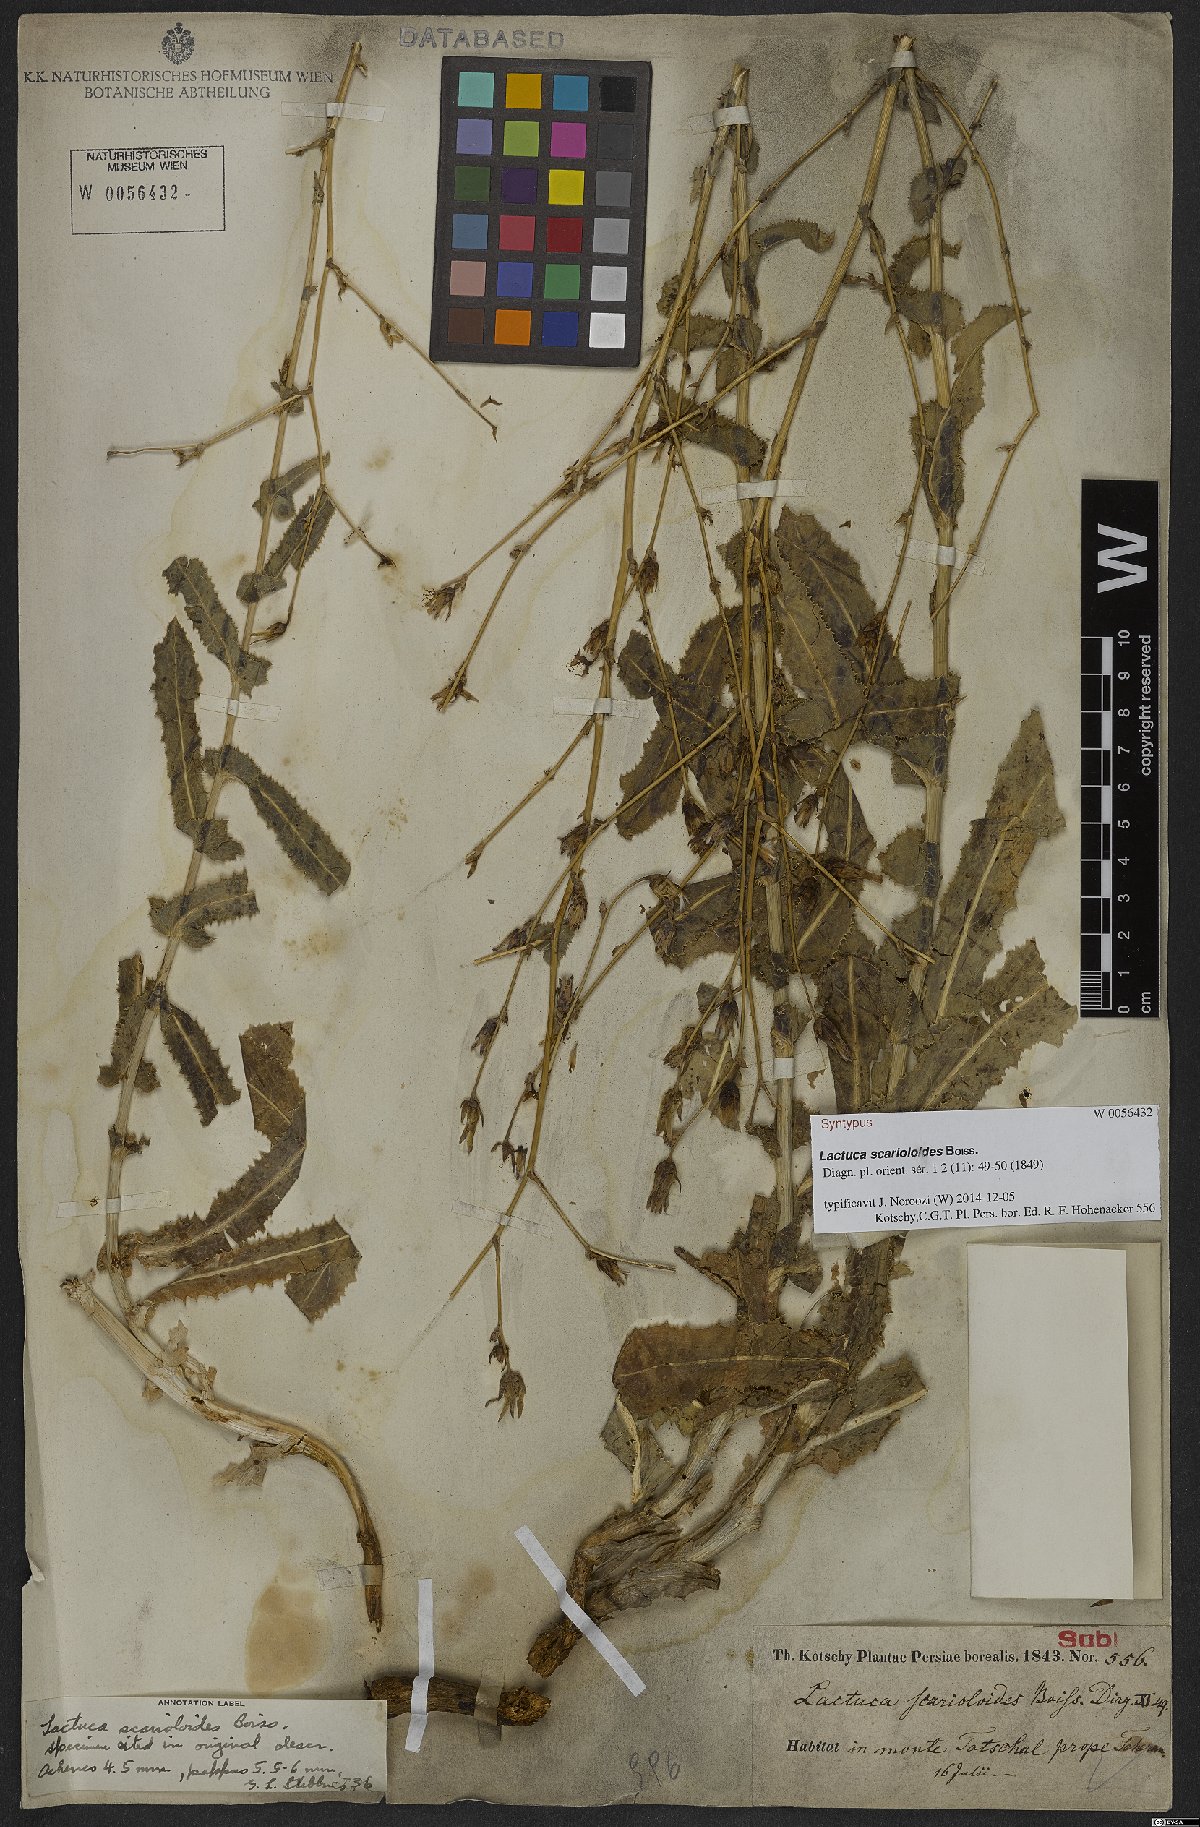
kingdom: Plantae
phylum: Tracheophyta
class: Magnoliopsida
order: Asterales
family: Asteraceae
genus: Lactuca
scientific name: Lactuca scarioloides
